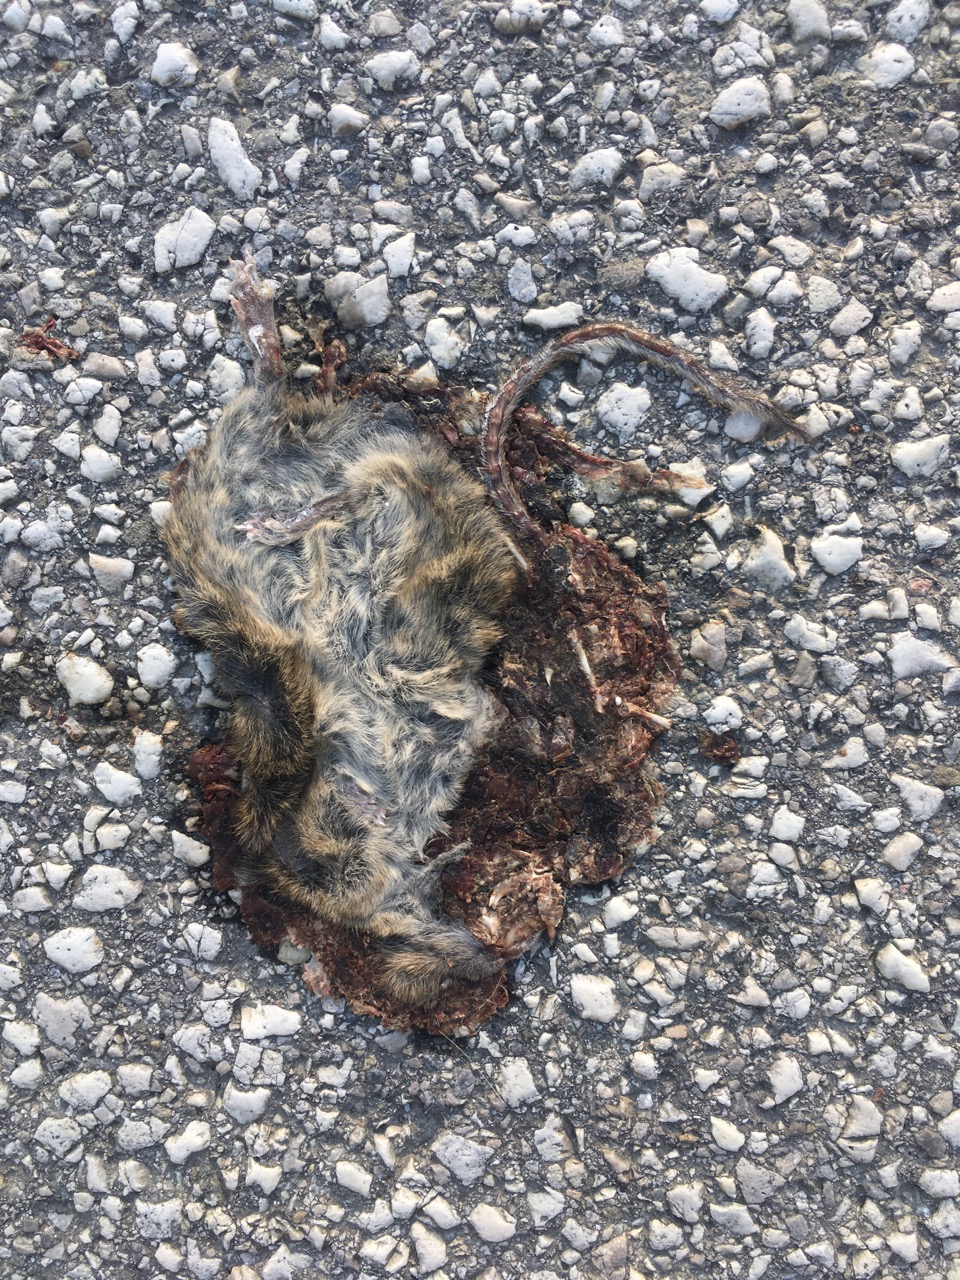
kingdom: Animalia
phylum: Chordata
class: Mammalia
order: Rodentia
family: Muridae
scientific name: Muridae
